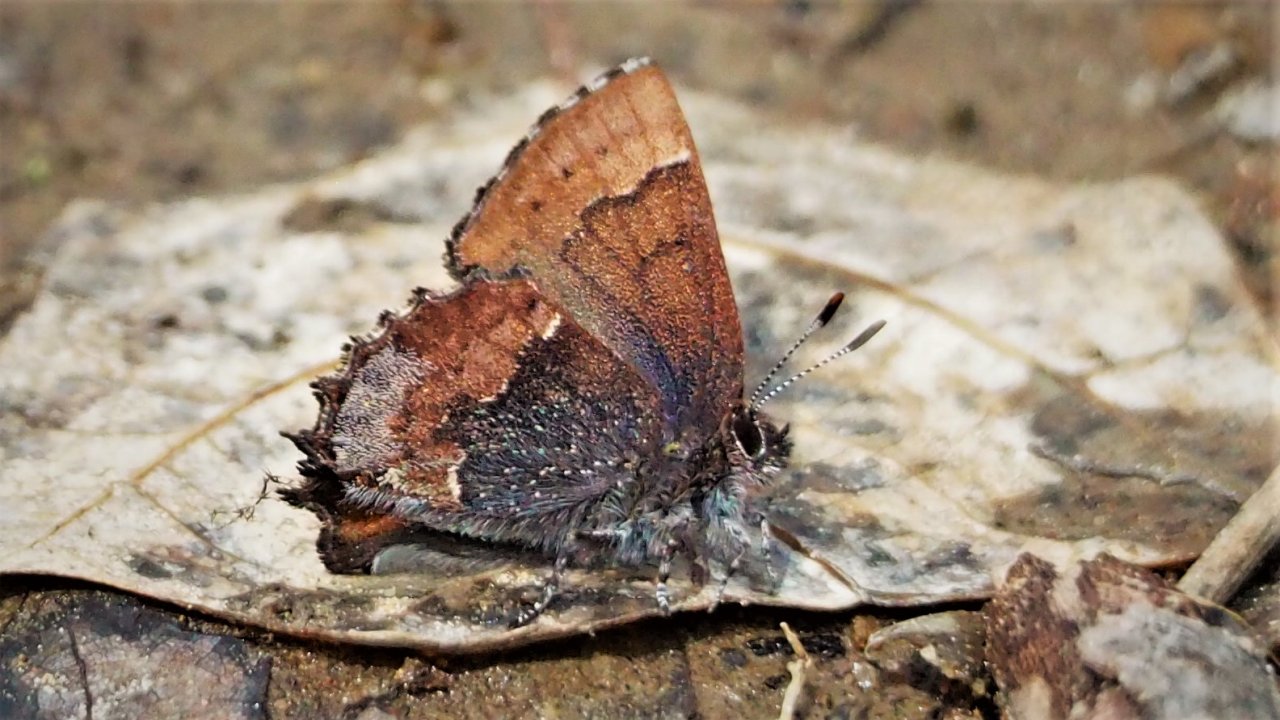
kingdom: Animalia
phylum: Arthropoda
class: Insecta
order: Lepidoptera
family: Lycaenidae
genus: Incisalia
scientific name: Incisalia henrici
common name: Henry's Elfin
